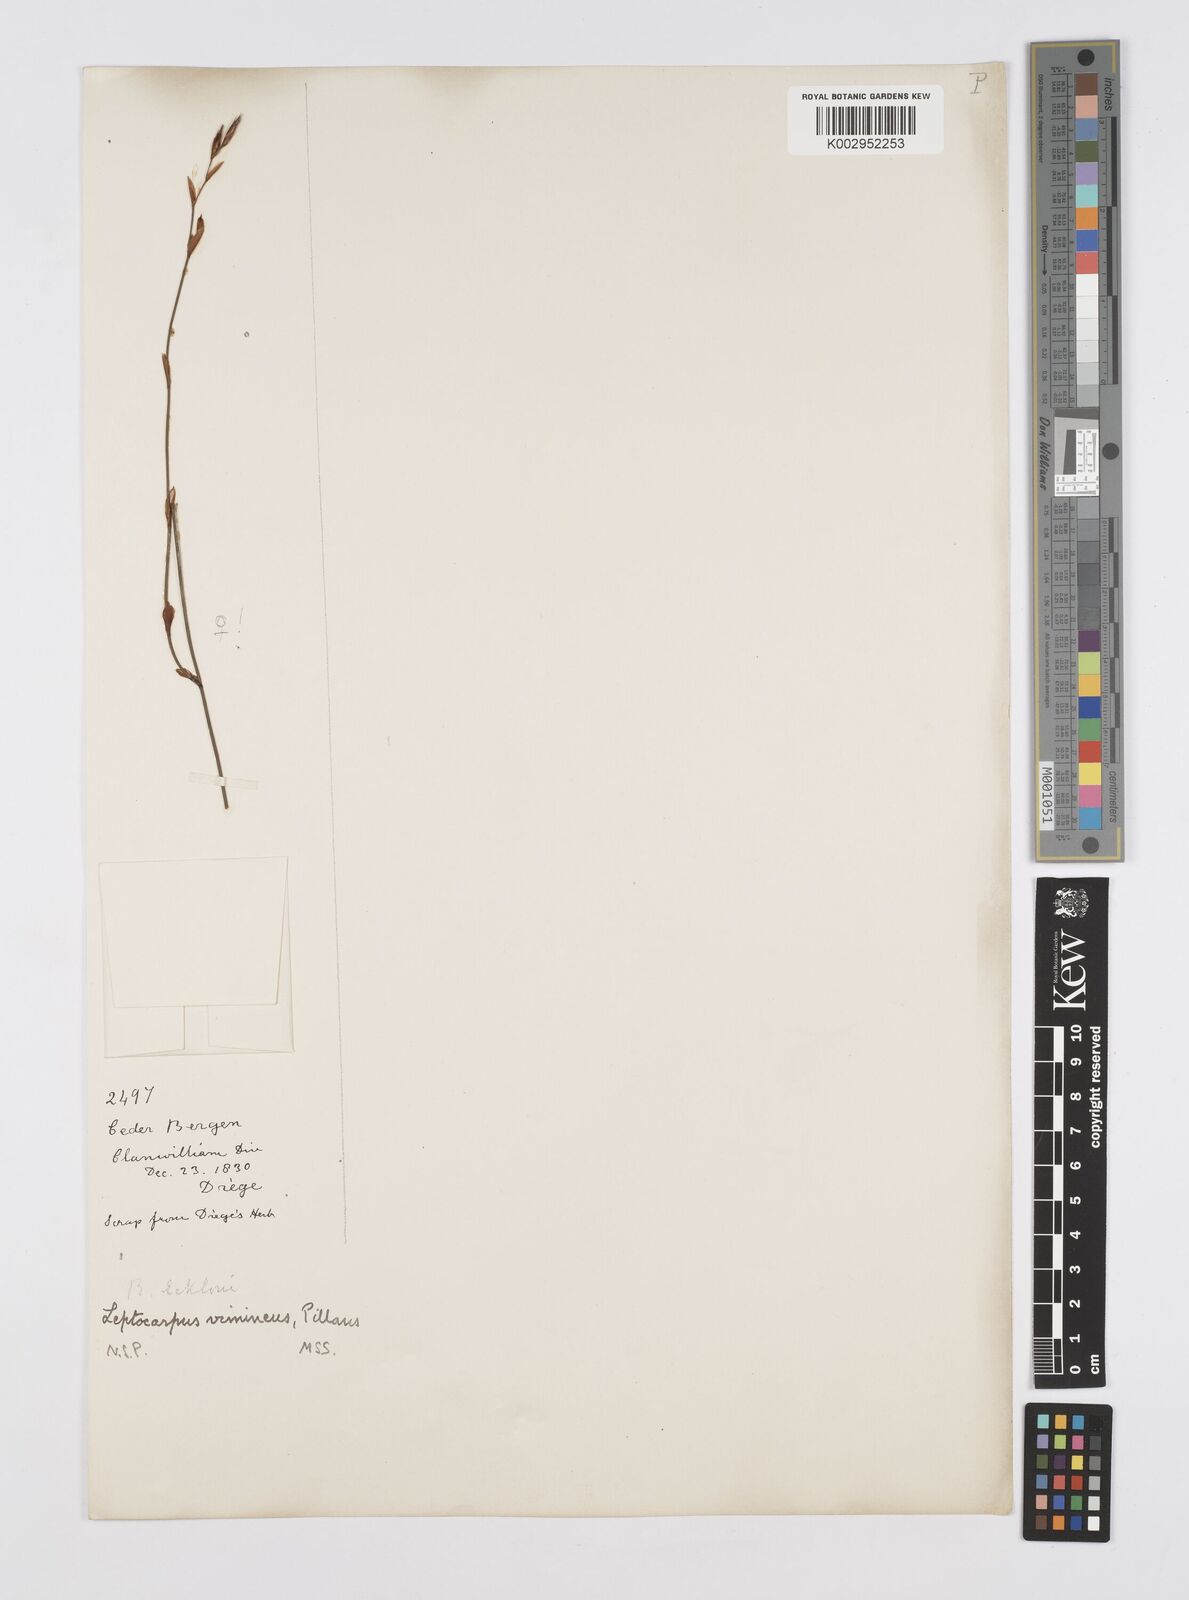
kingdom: Plantae
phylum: Tracheophyta
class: Liliopsida
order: Poales
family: Restionaceae
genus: Restio
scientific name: Restio vimineus
